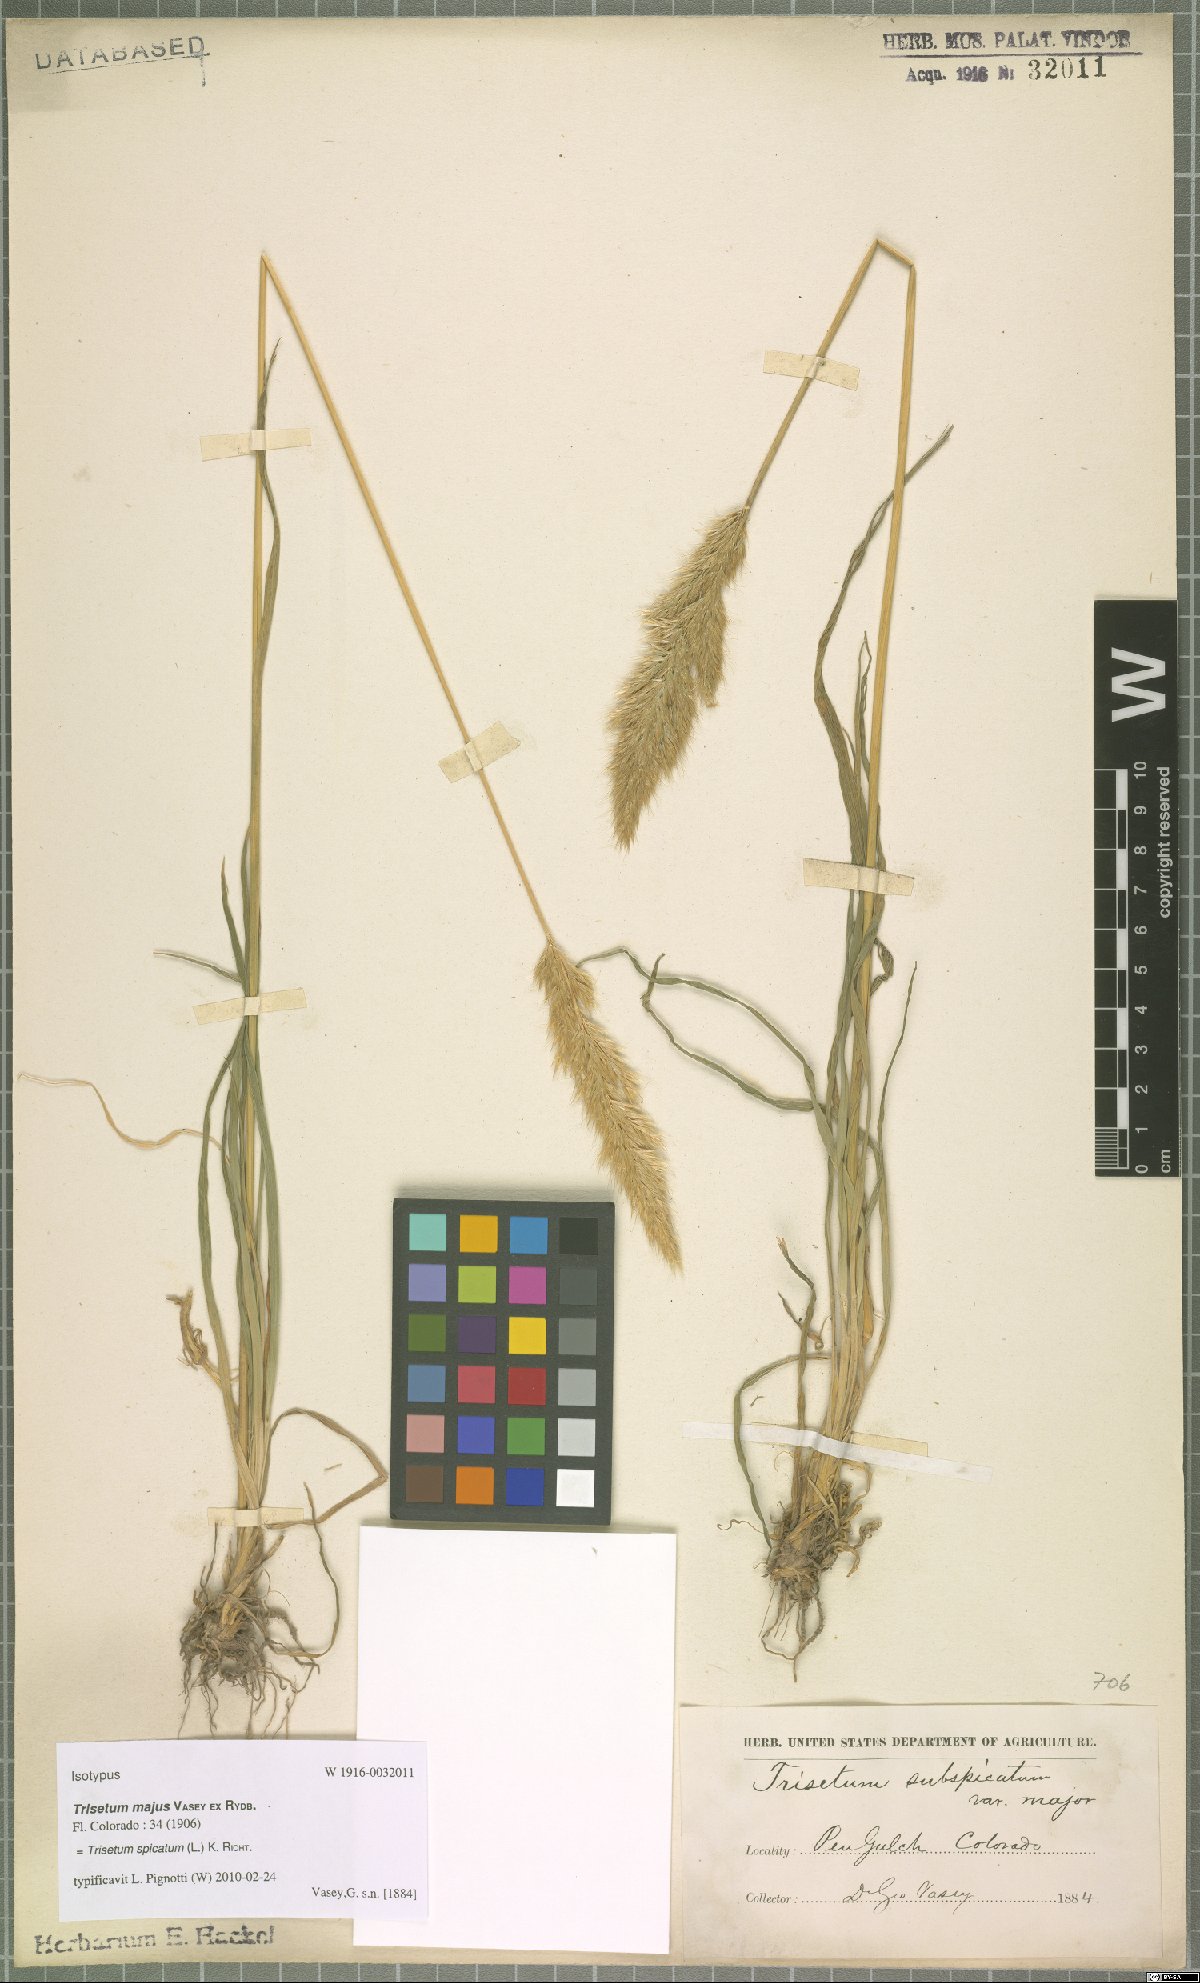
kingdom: Plantae
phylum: Tracheophyta
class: Liliopsida
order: Poales
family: Poaceae
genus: Koeleria
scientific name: Koeleria spicata
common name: Mountain trisetum
